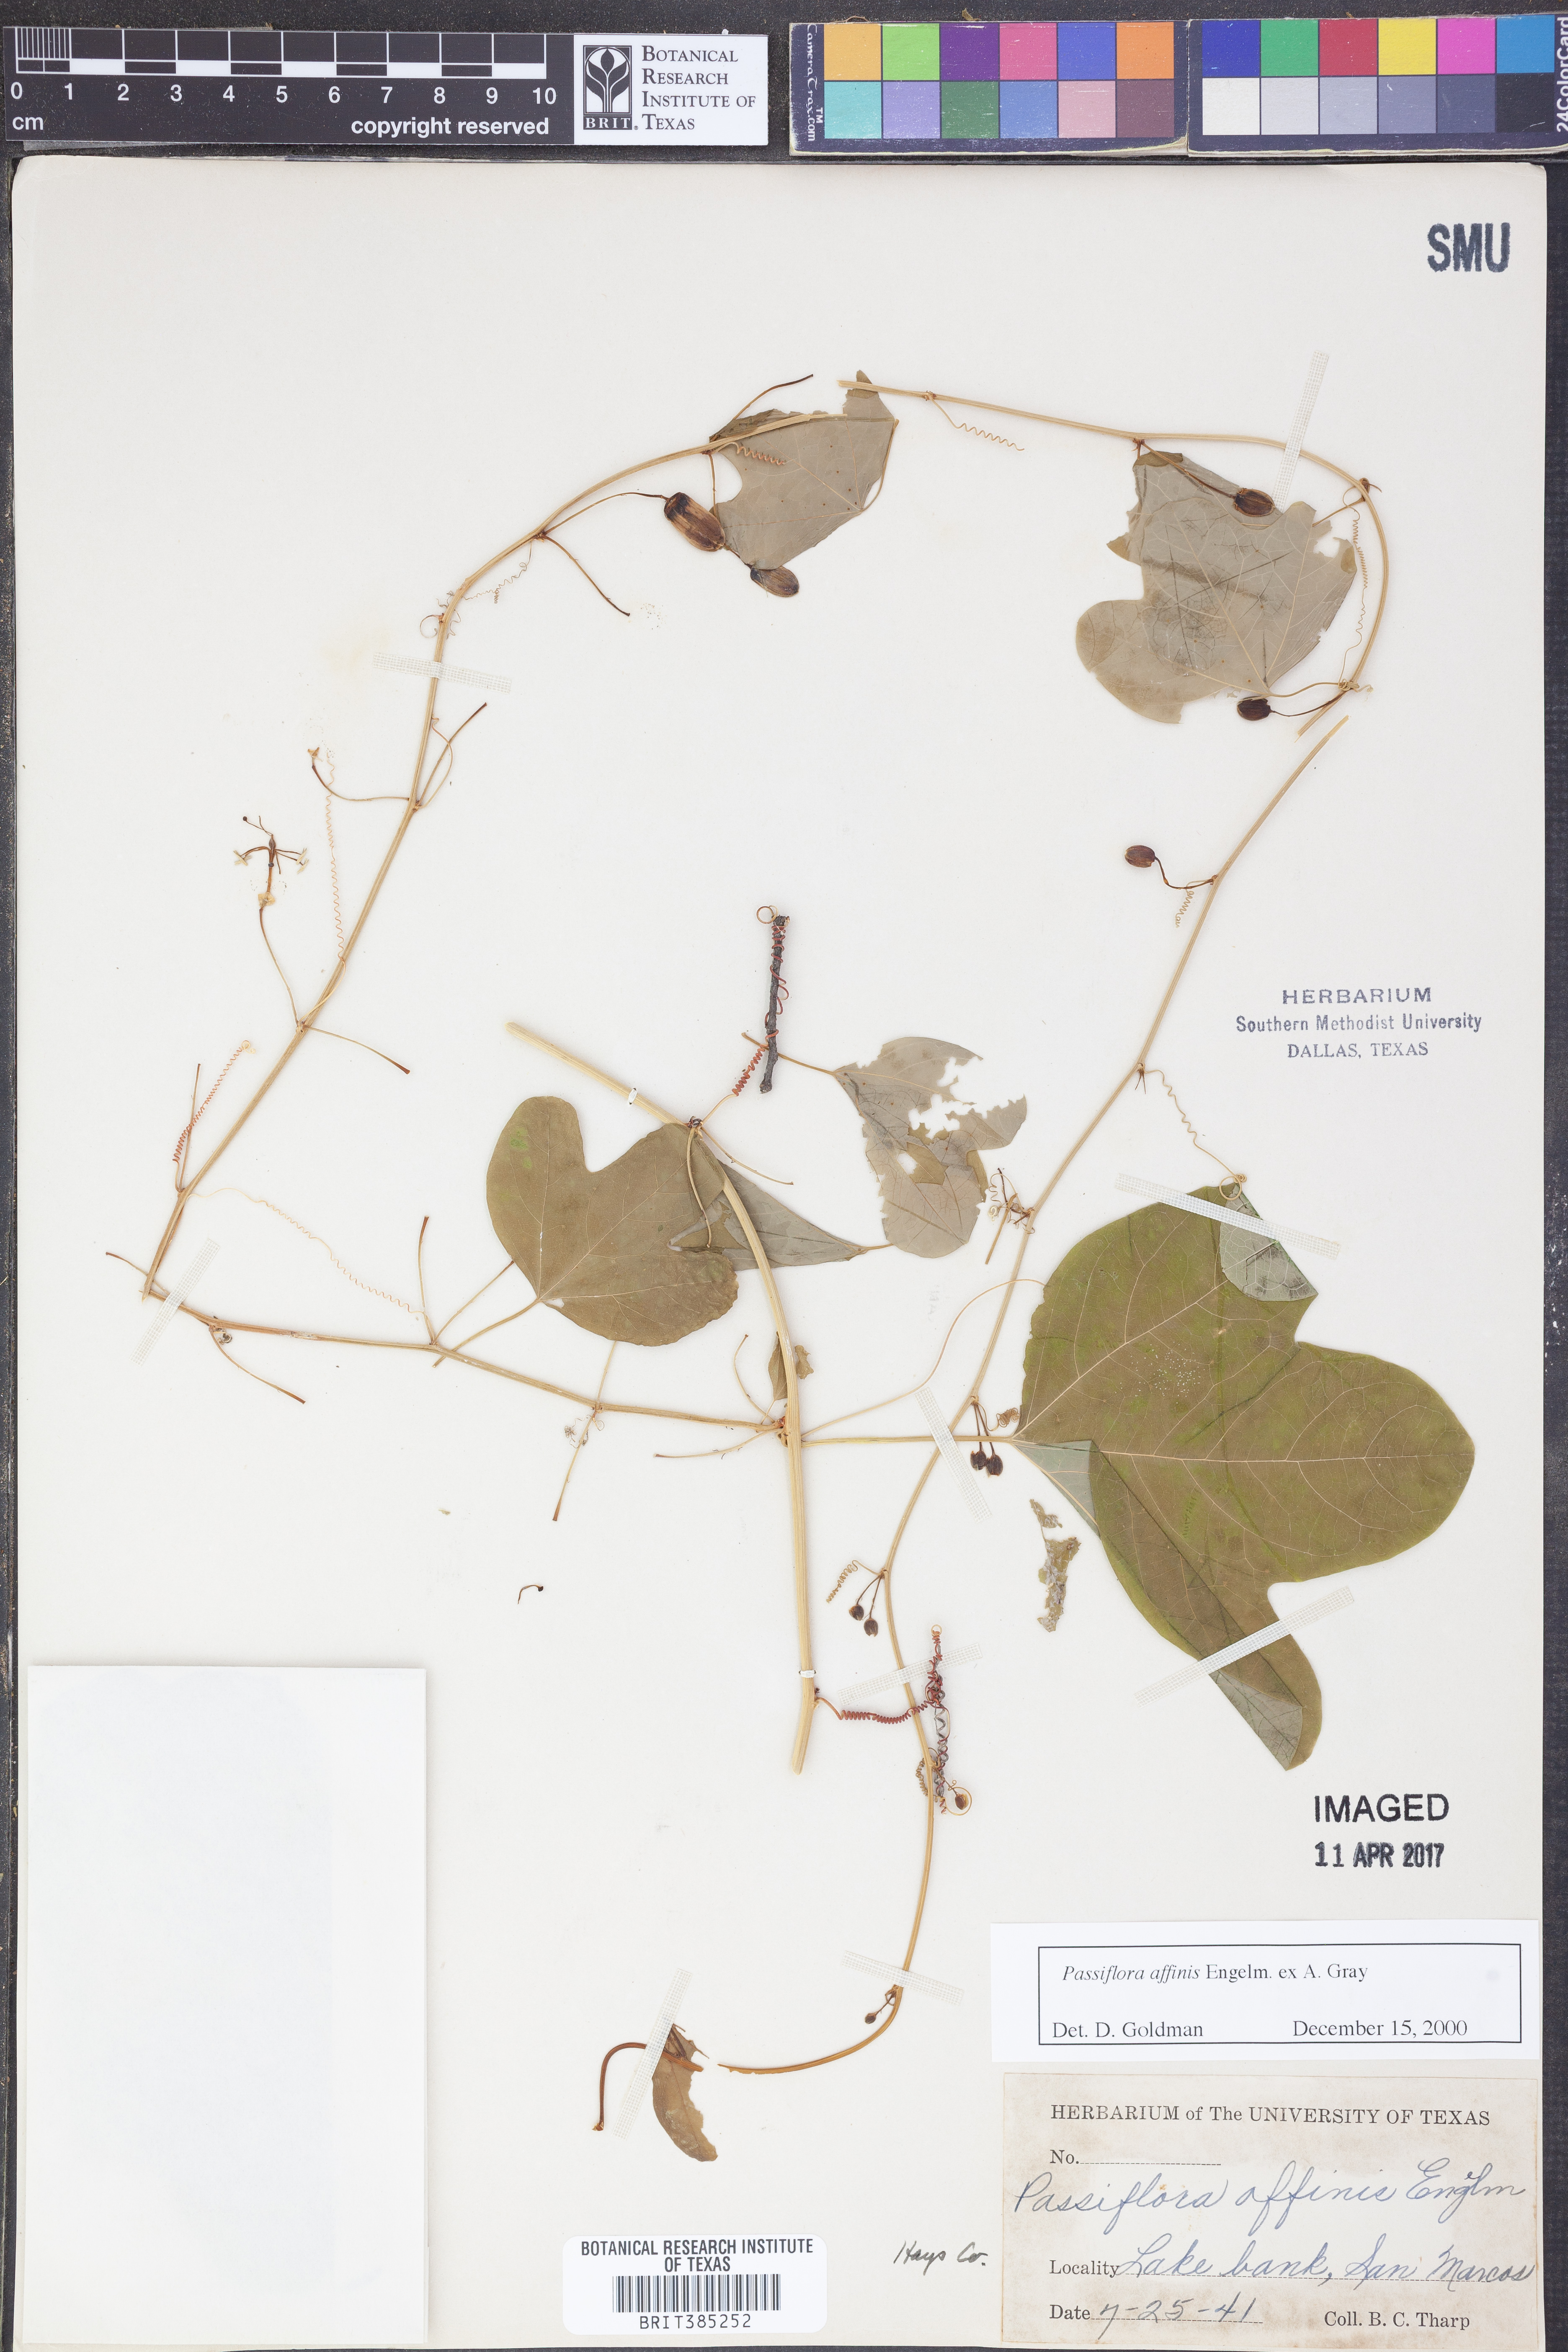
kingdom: Plantae
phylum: Tracheophyta
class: Magnoliopsida
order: Malpighiales
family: Passifloraceae
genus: Passiflora
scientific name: Passiflora affinis
